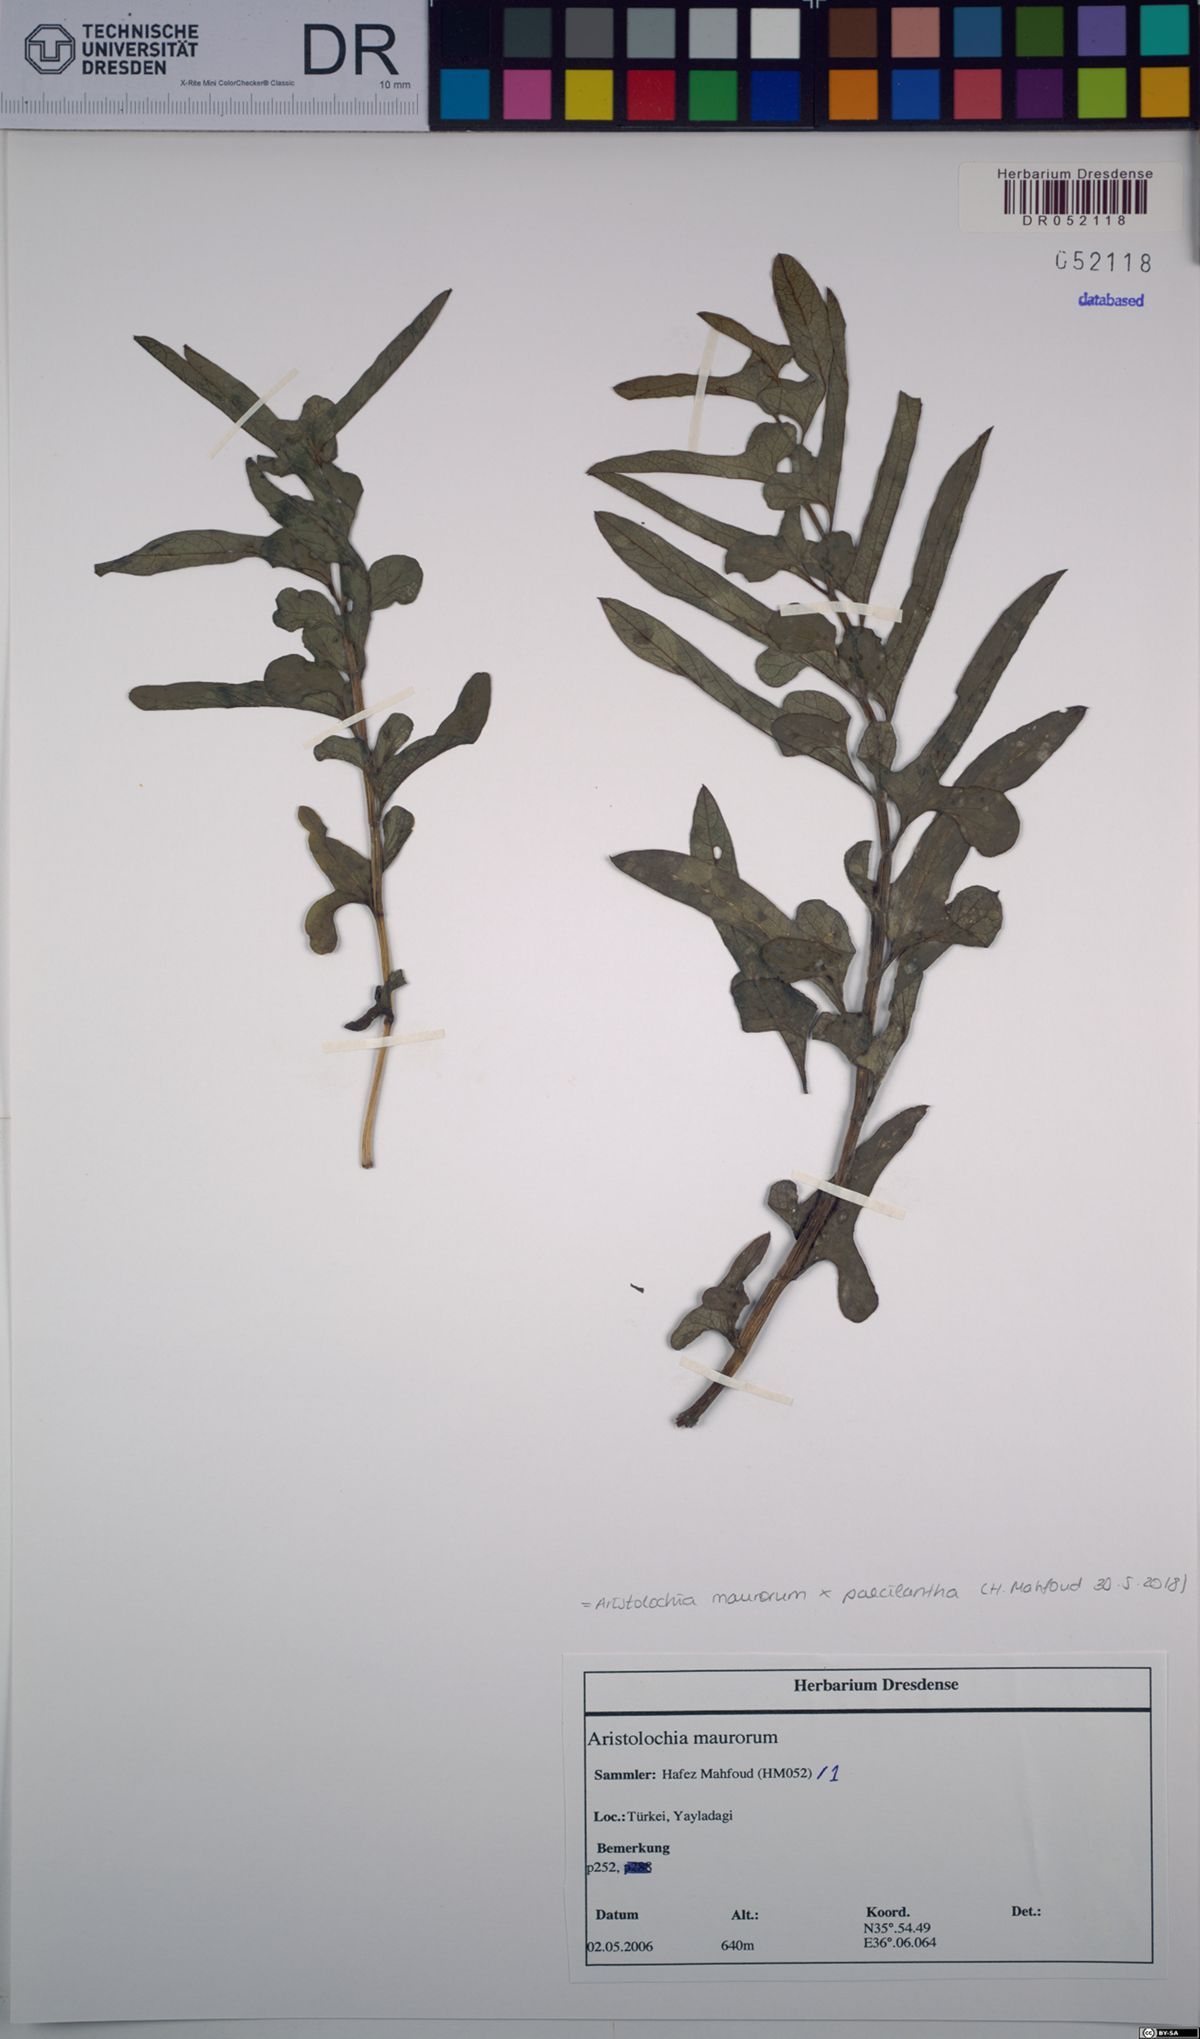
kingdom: Plantae
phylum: Tracheophyta
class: Magnoliopsida
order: Piperales
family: Aristolochiaceae
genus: Aristolochia
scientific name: Aristolochia maurorum
